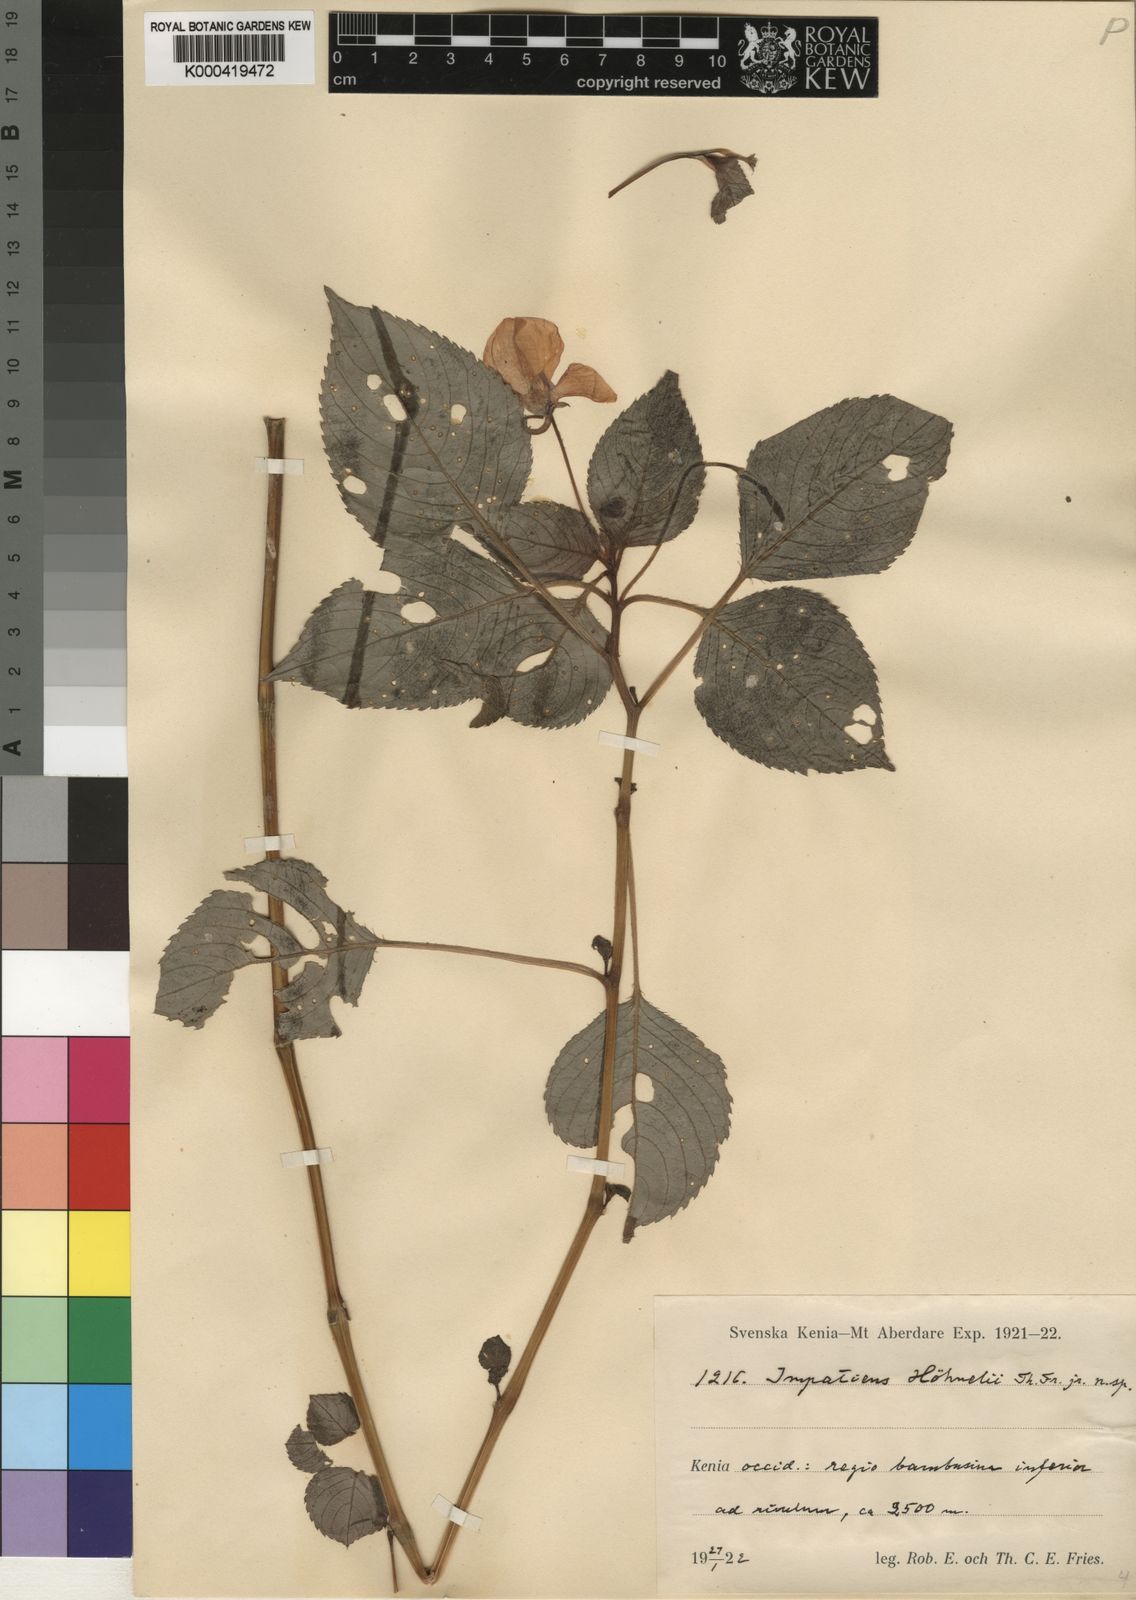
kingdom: Plantae
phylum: Tracheophyta
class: Magnoliopsida
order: Ericales
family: Balsaminaceae
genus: Impatiens
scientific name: Impatiens hoehnelii
